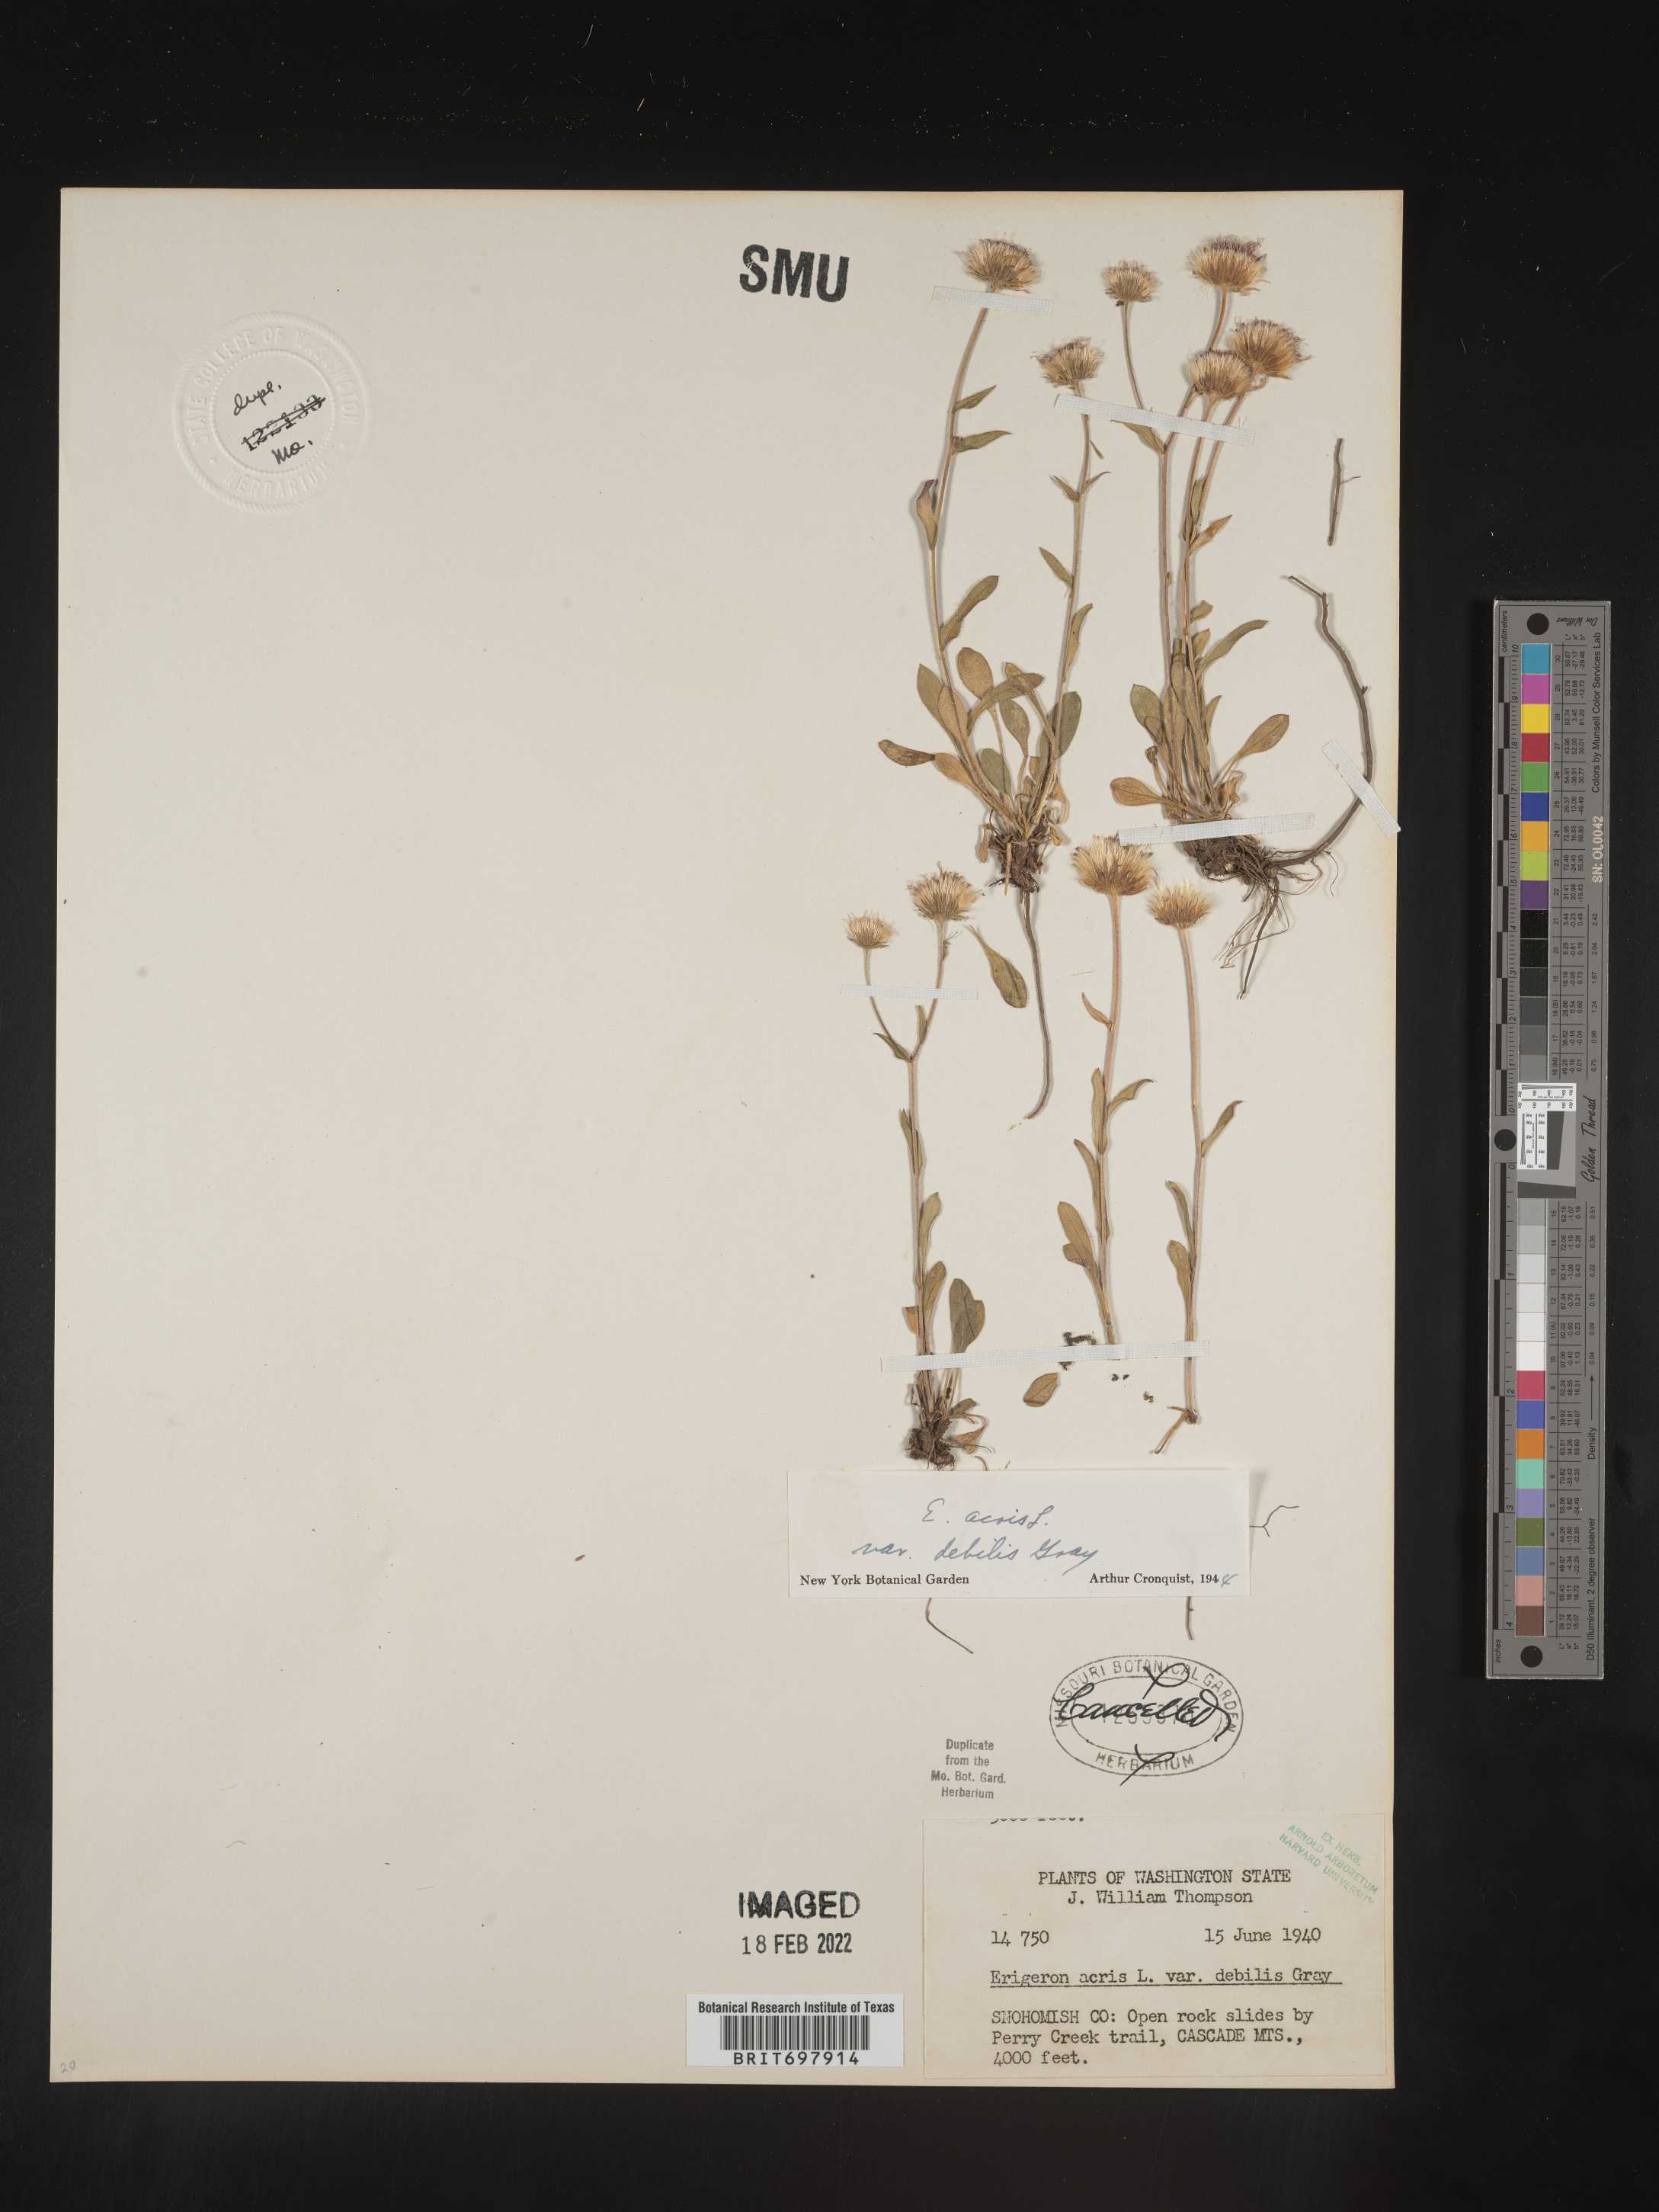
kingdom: Plantae
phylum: Tracheophyta
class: Magnoliopsida
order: Asterales
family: Asteraceae
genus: Erigeron
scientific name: Erigeron nivalis
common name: Snow fleabane
